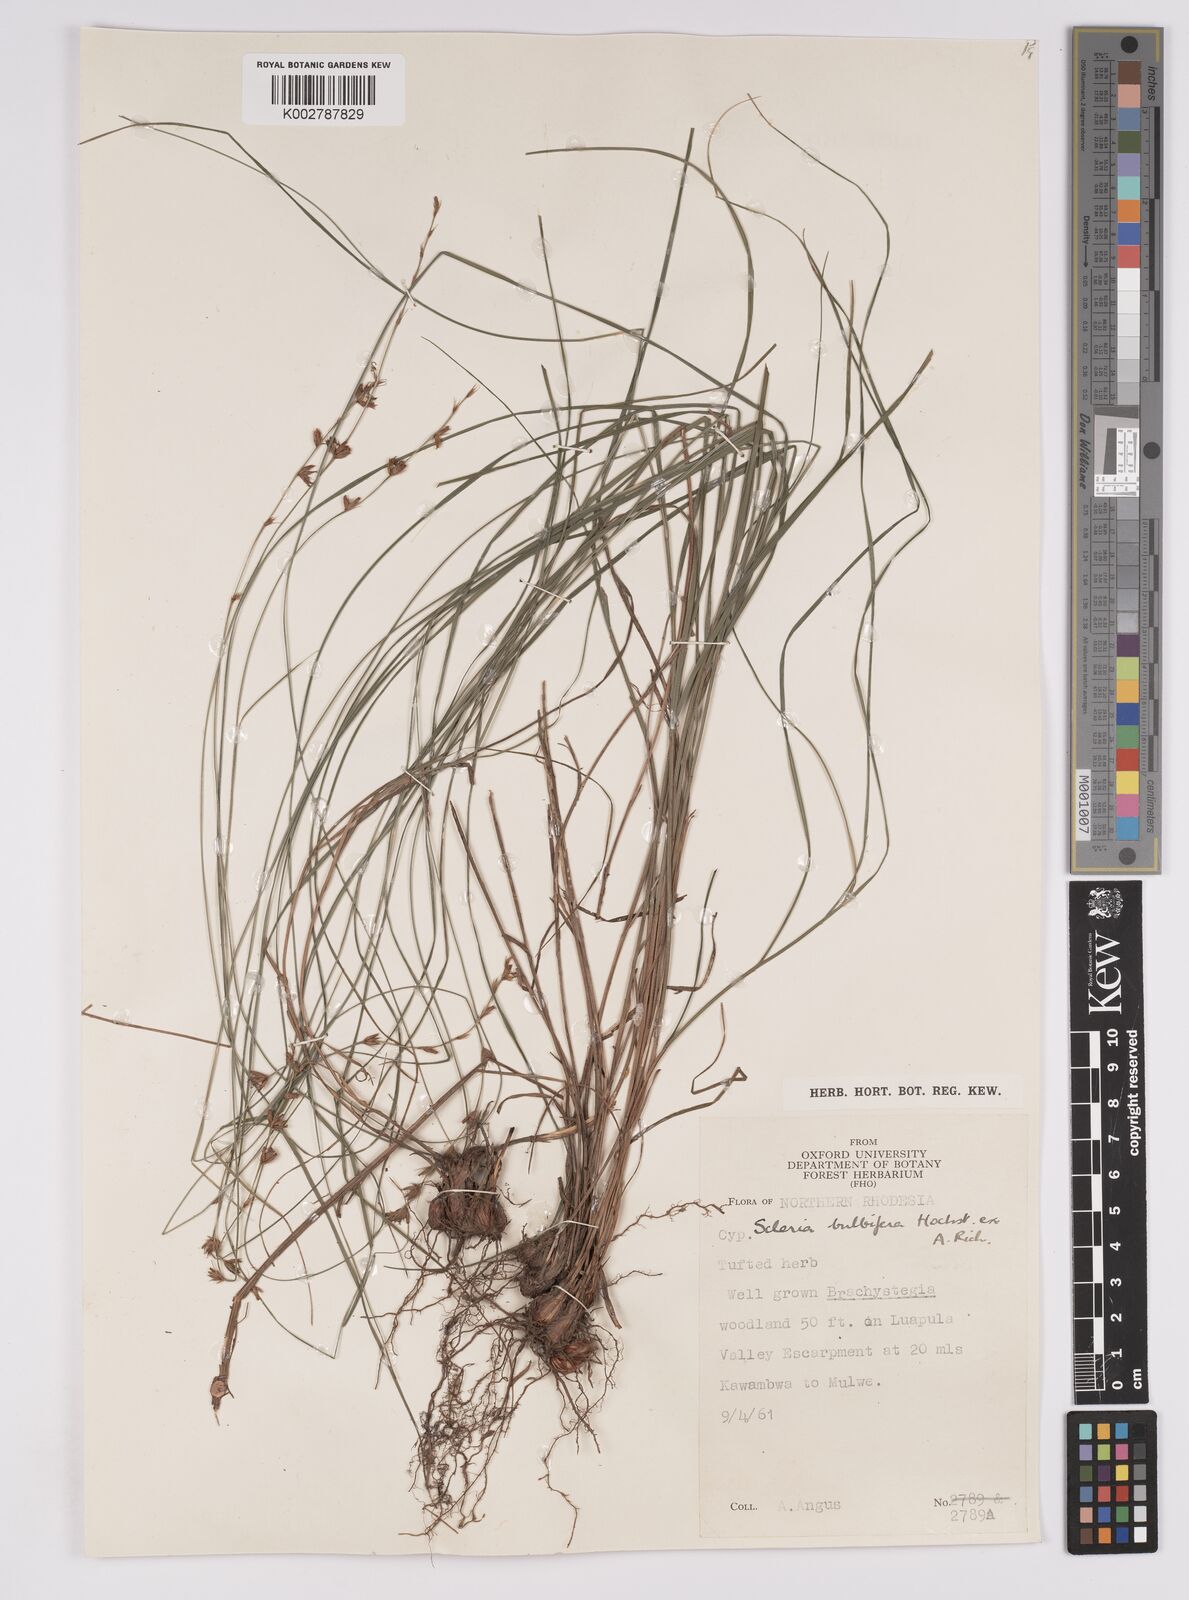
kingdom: Plantae
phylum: Tracheophyta
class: Liliopsida
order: Poales
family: Cyperaceae
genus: Scleria
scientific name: Scleria bulbifera
